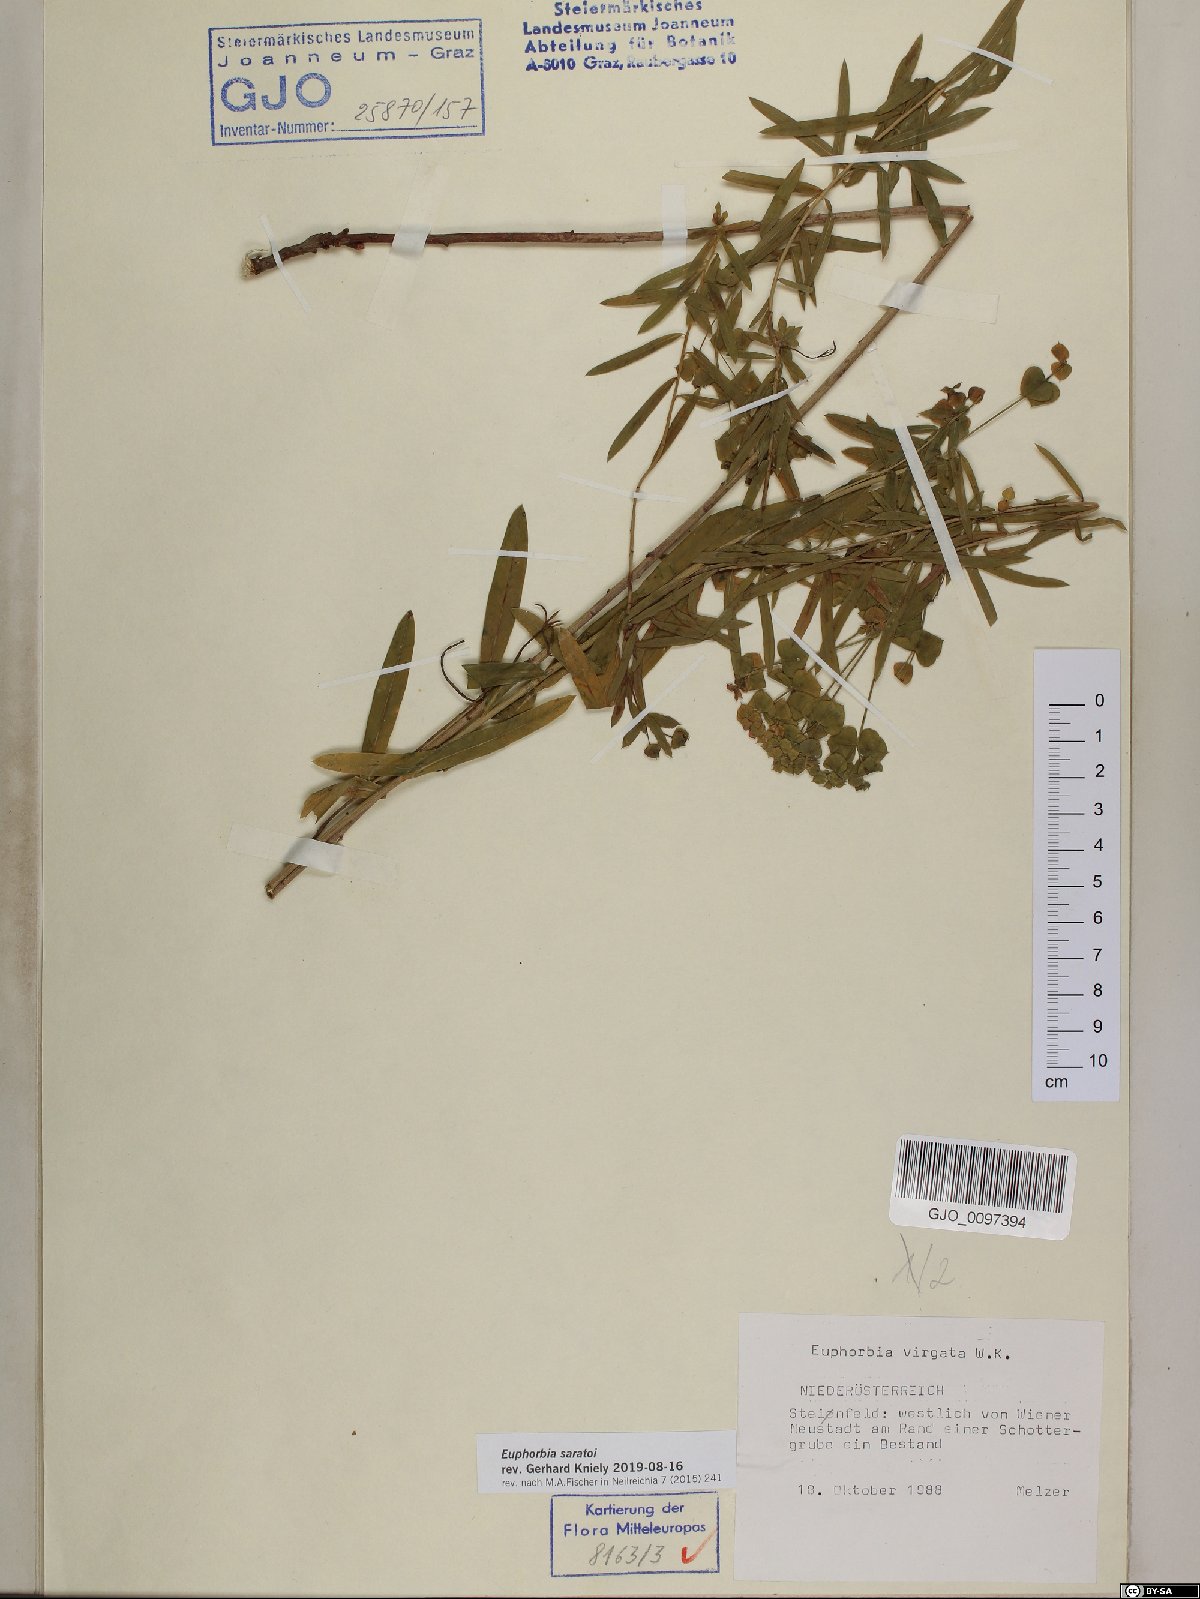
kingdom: Plantae
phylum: Tracheophyta
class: Magnoliopsida
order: Malpighiales
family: Euphorbiaceae
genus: Euphorbia
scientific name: Euphorbia saratoi
